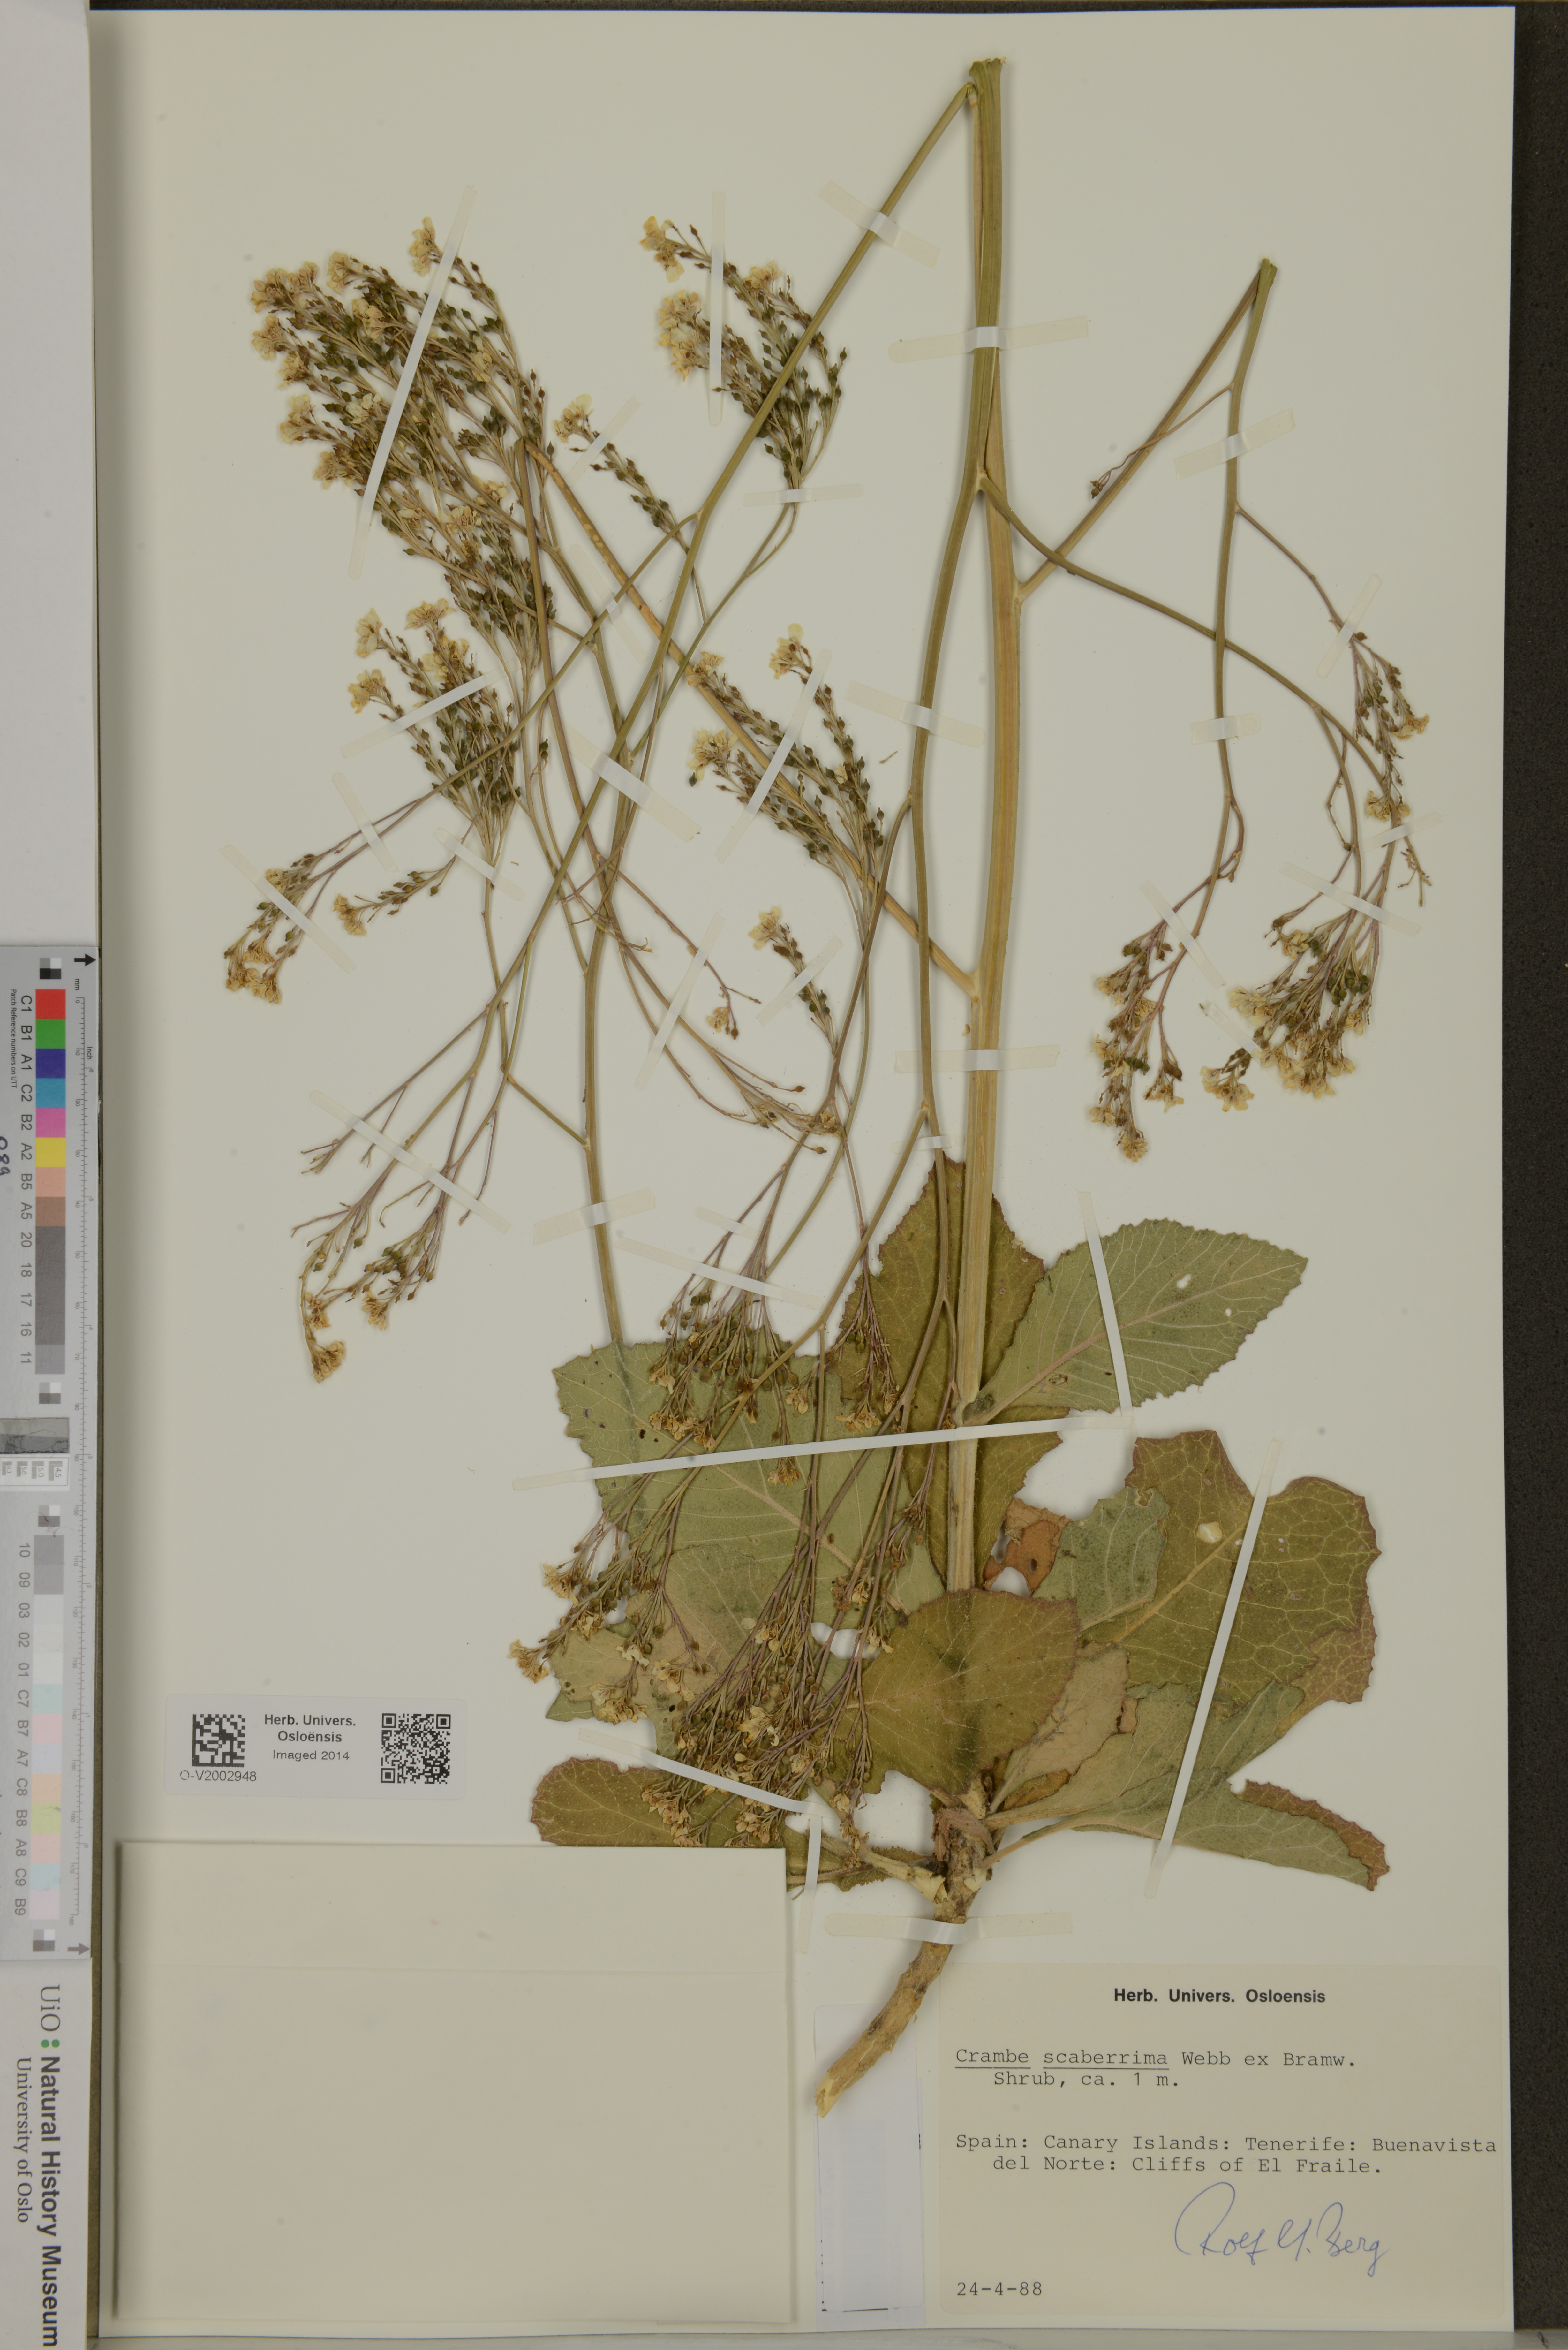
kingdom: Plantae
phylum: Tracheophyta
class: Magnoliopsida
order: Brassicales
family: Brassicaceae
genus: Crambe
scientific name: Crambe scaberrima
